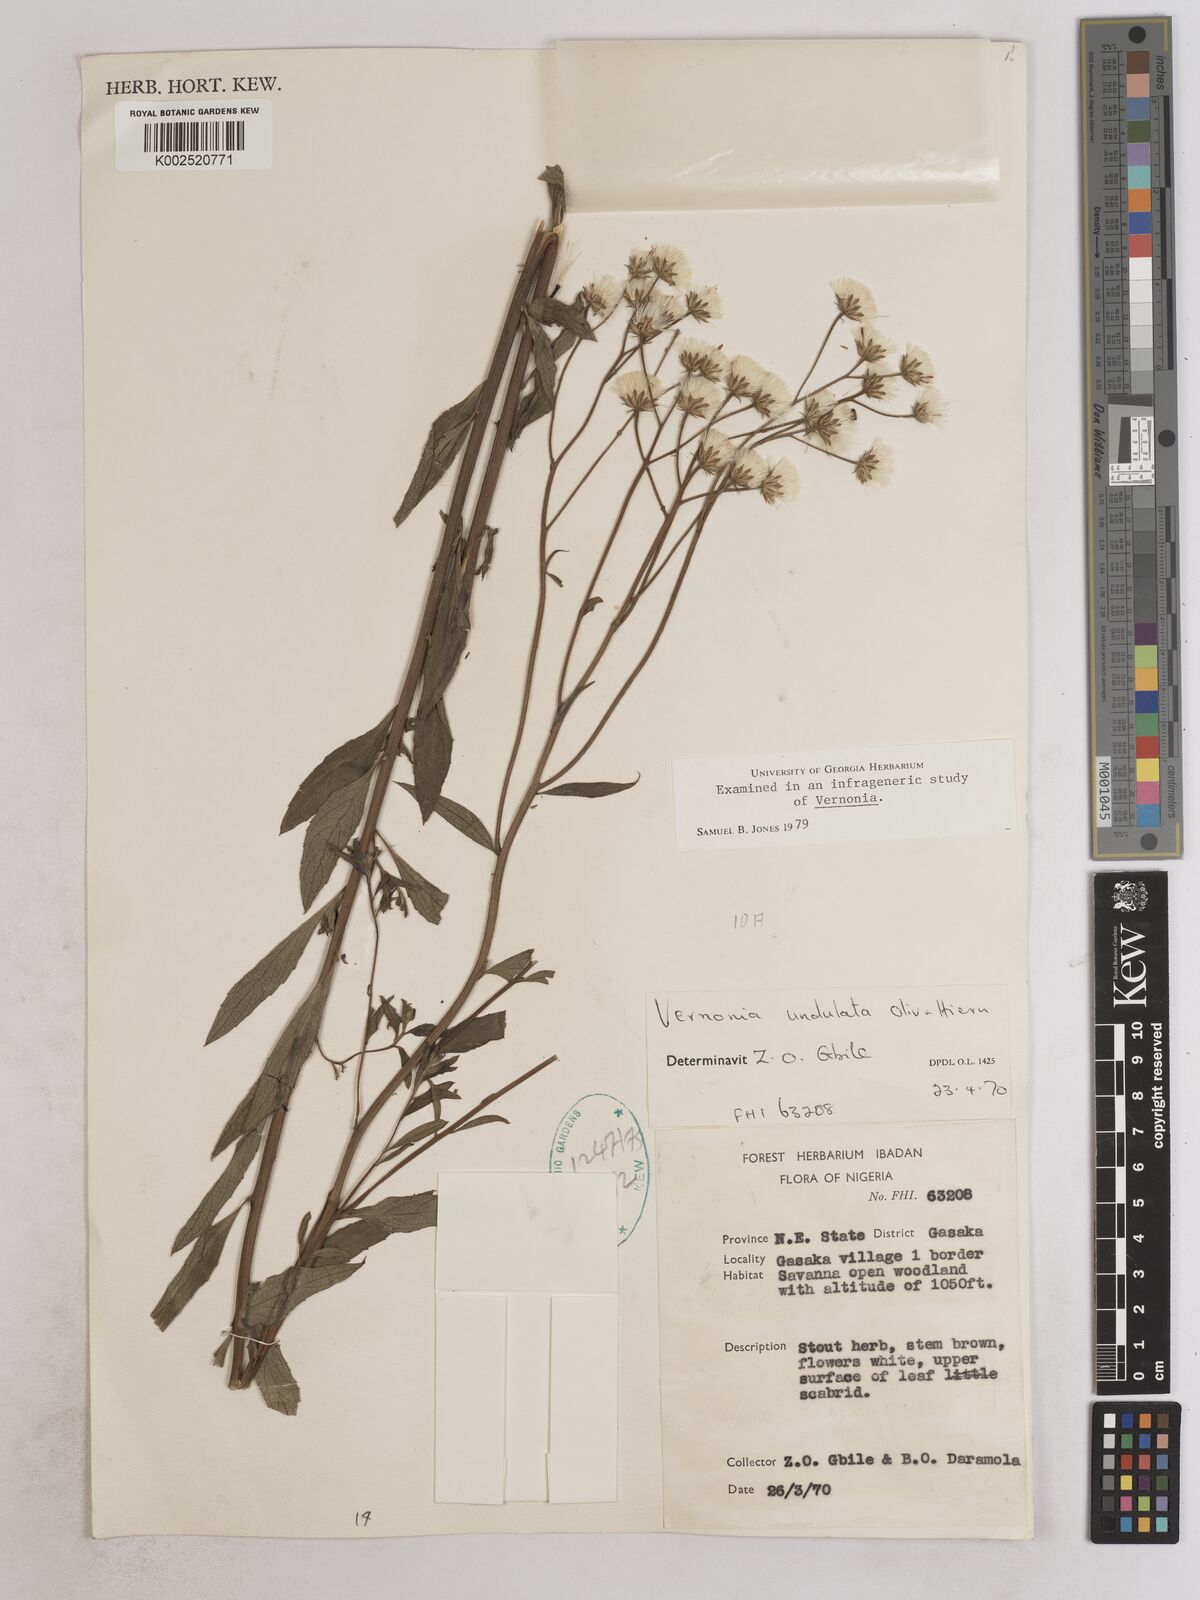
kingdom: Plantae
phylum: Tracheophyta
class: Magnoliopsida
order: Asterales
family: Asteraceae
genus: Vernonia
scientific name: Vernonia golungensis
